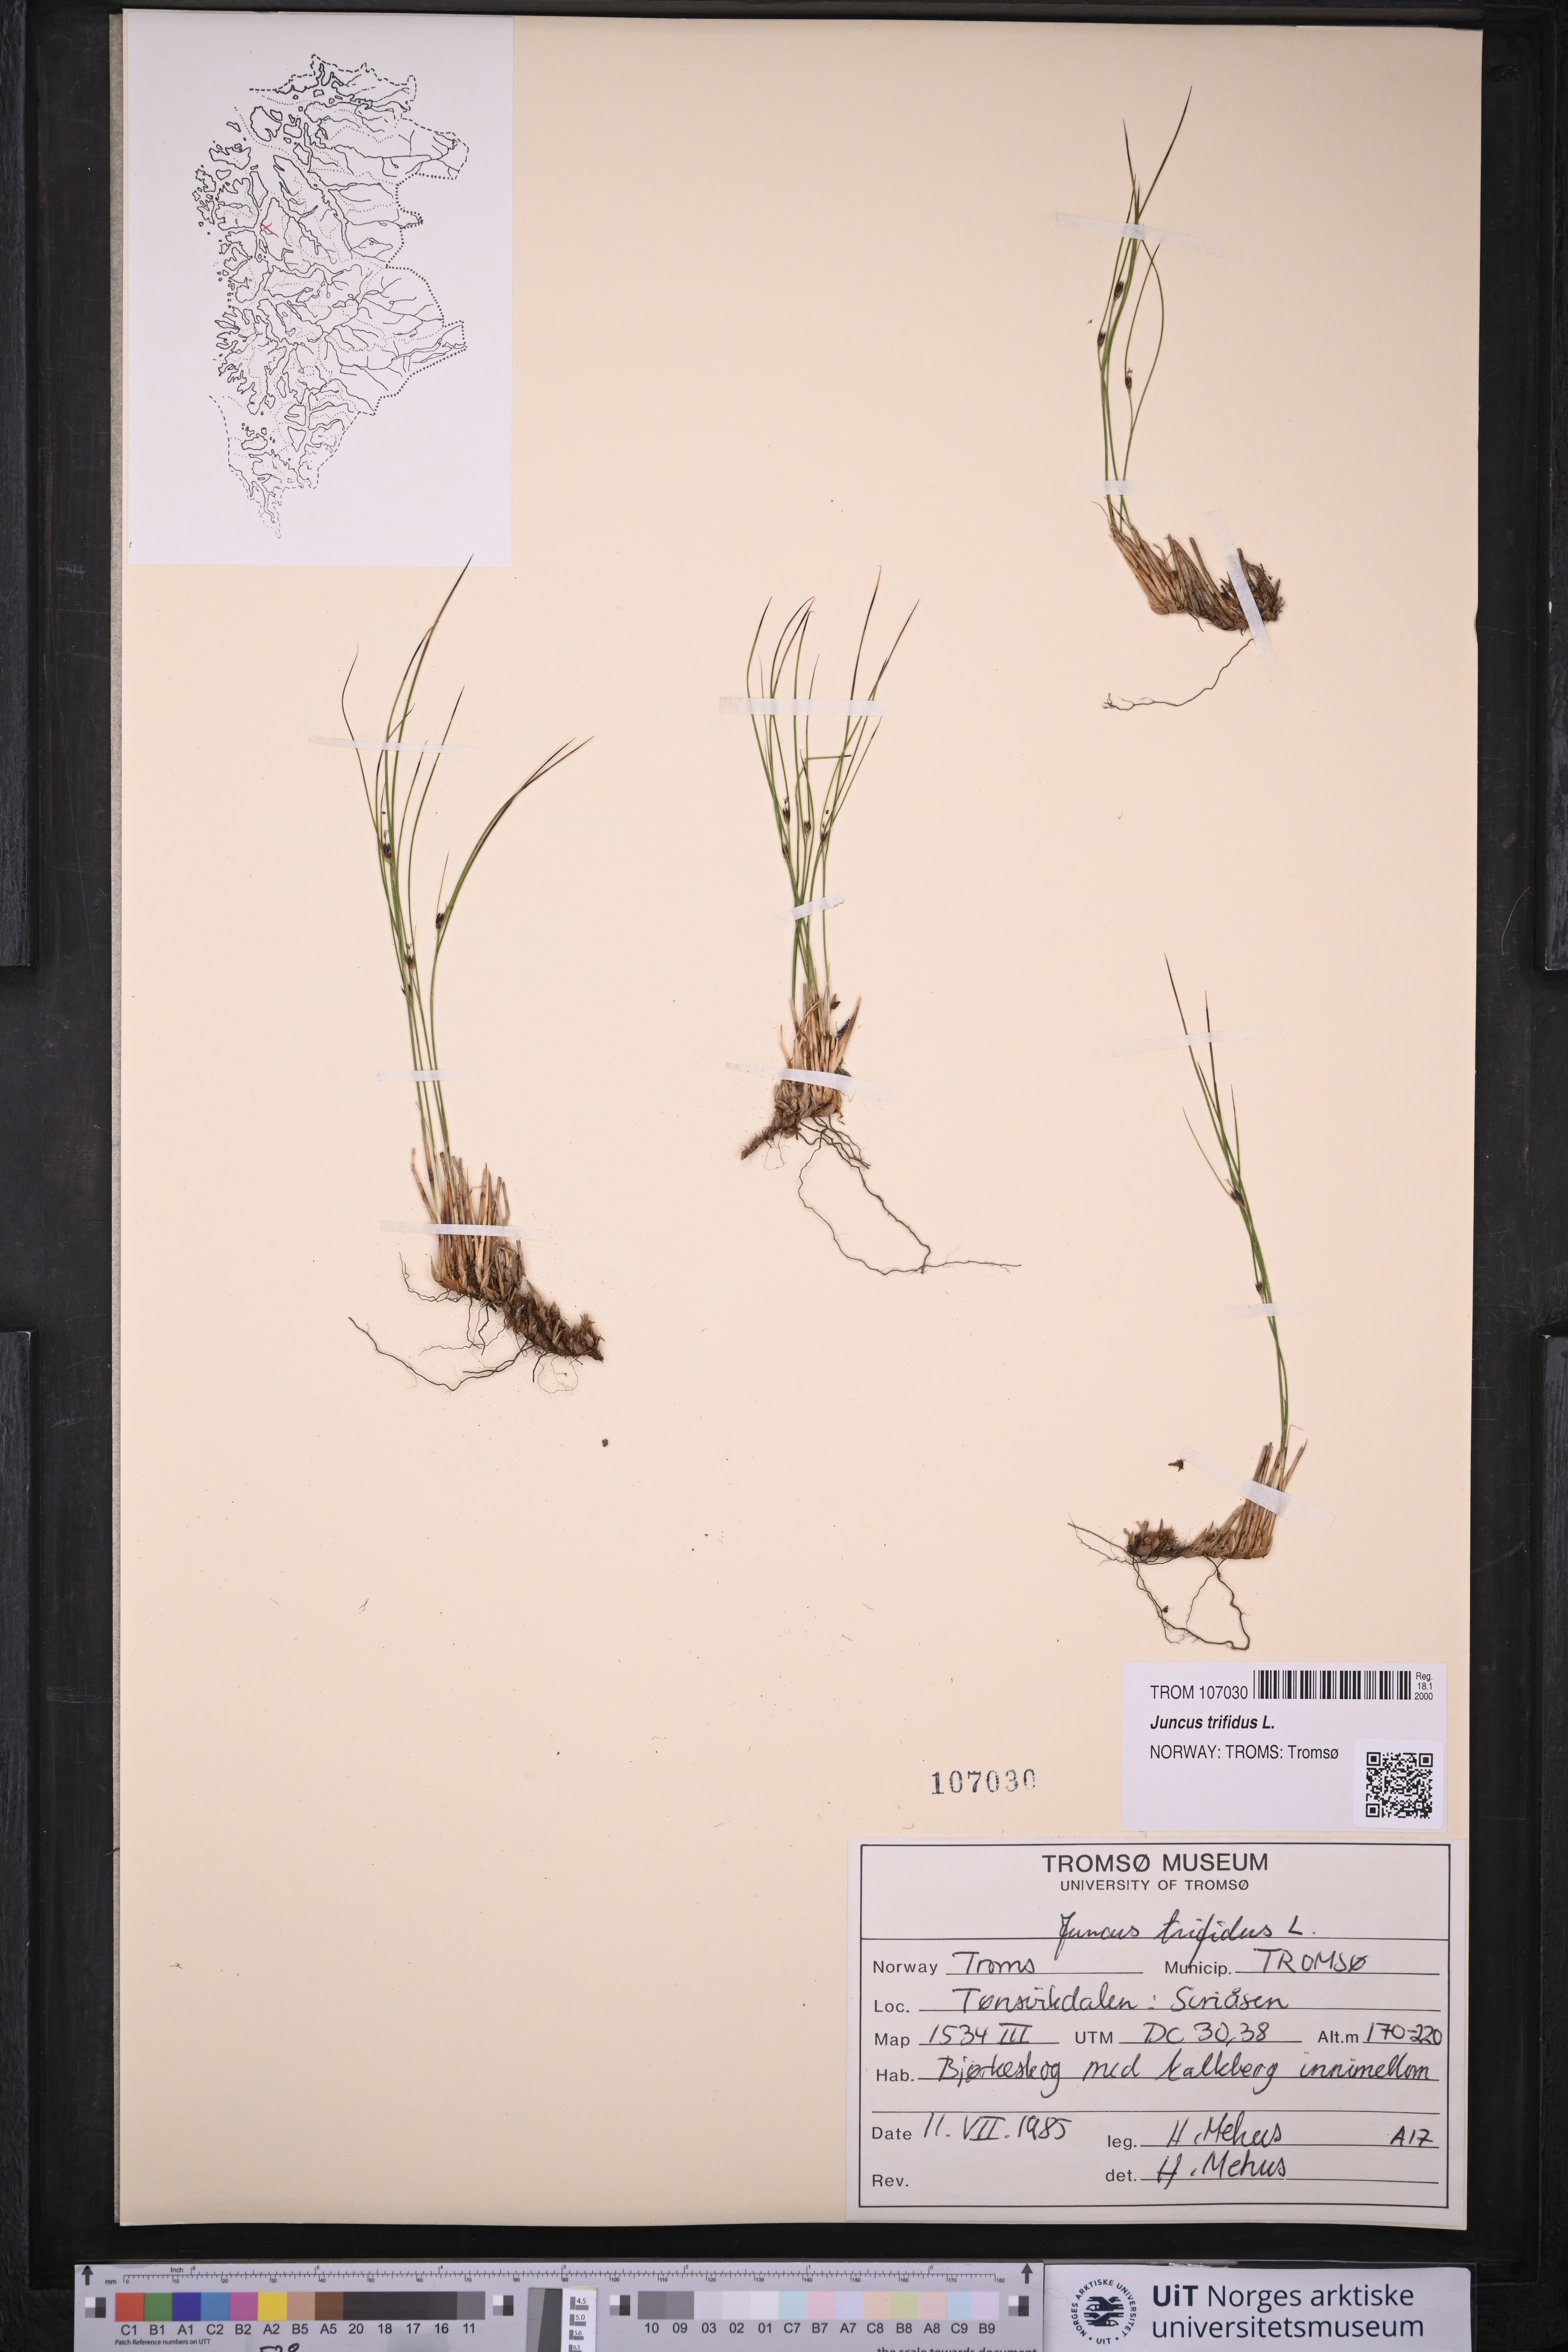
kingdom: Plantae
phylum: Tracheophyta
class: Liliopsida
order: Poales
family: Juncaceae
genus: Oreojuncus
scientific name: Oreojuncus trifidus
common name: Highland rush
